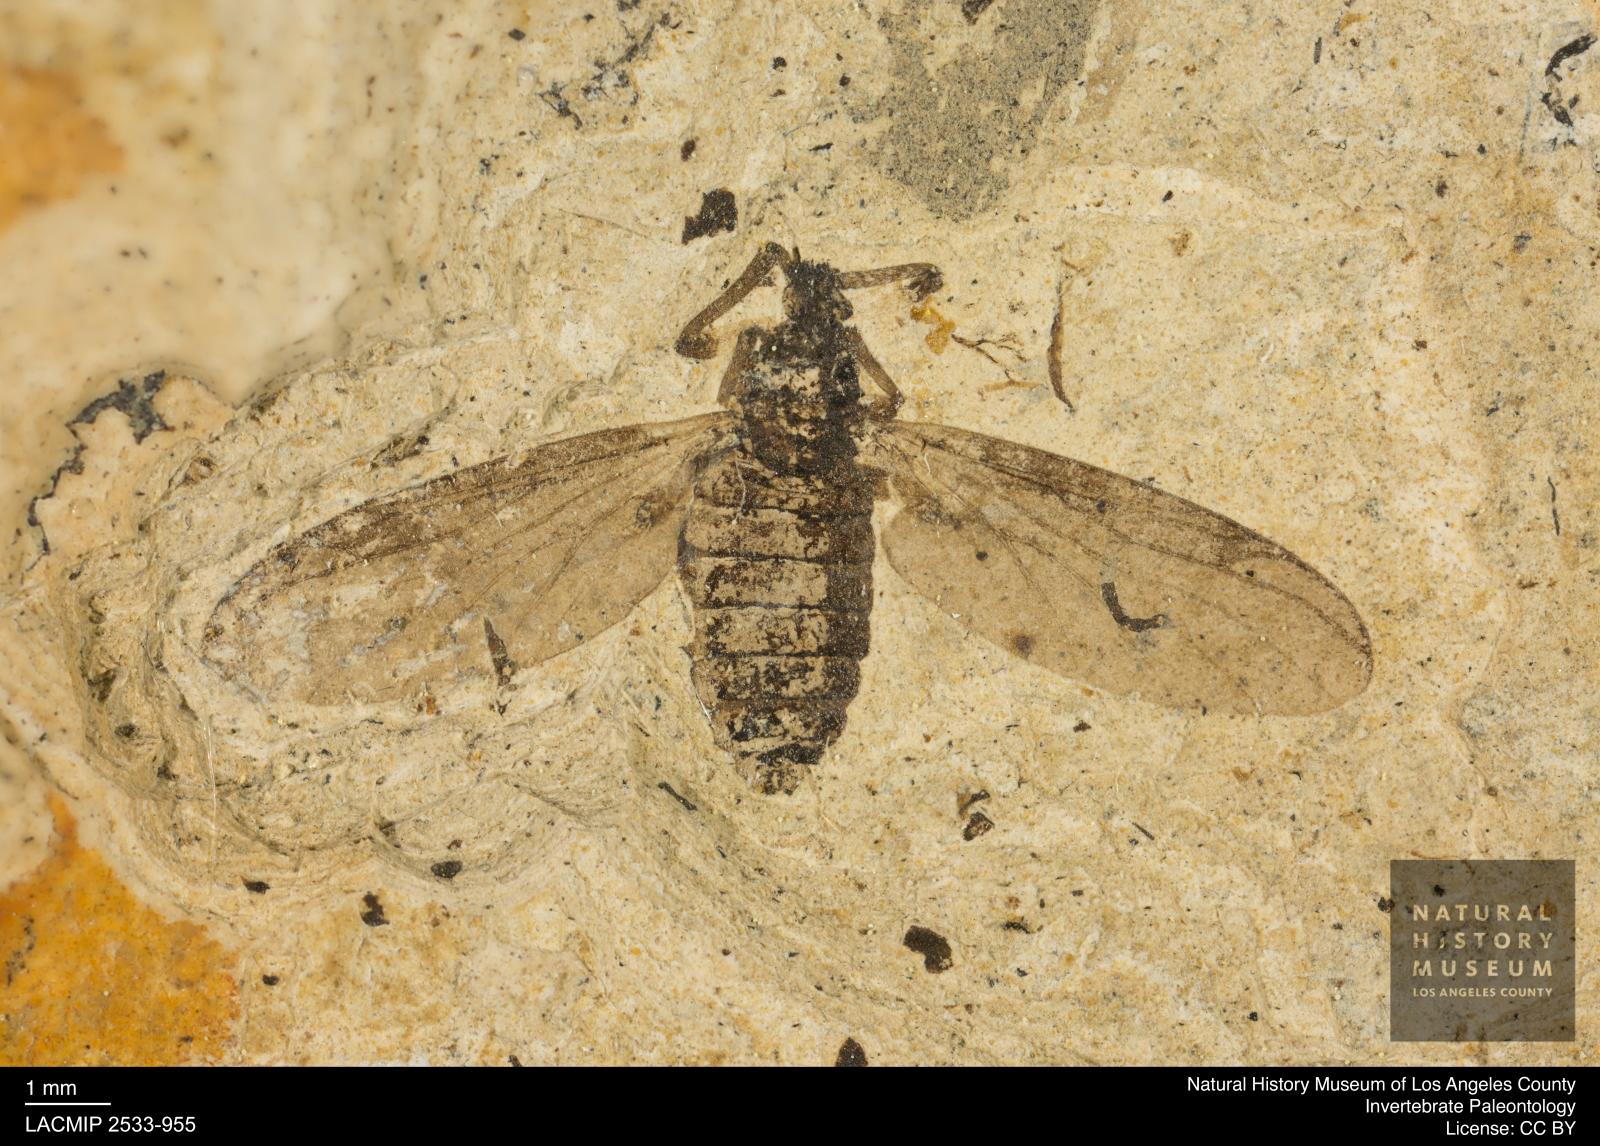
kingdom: Animalia
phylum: Arthropoda
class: Insecta
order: Diptera
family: Bibionidae
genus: Plecia
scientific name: Plecia stygia
